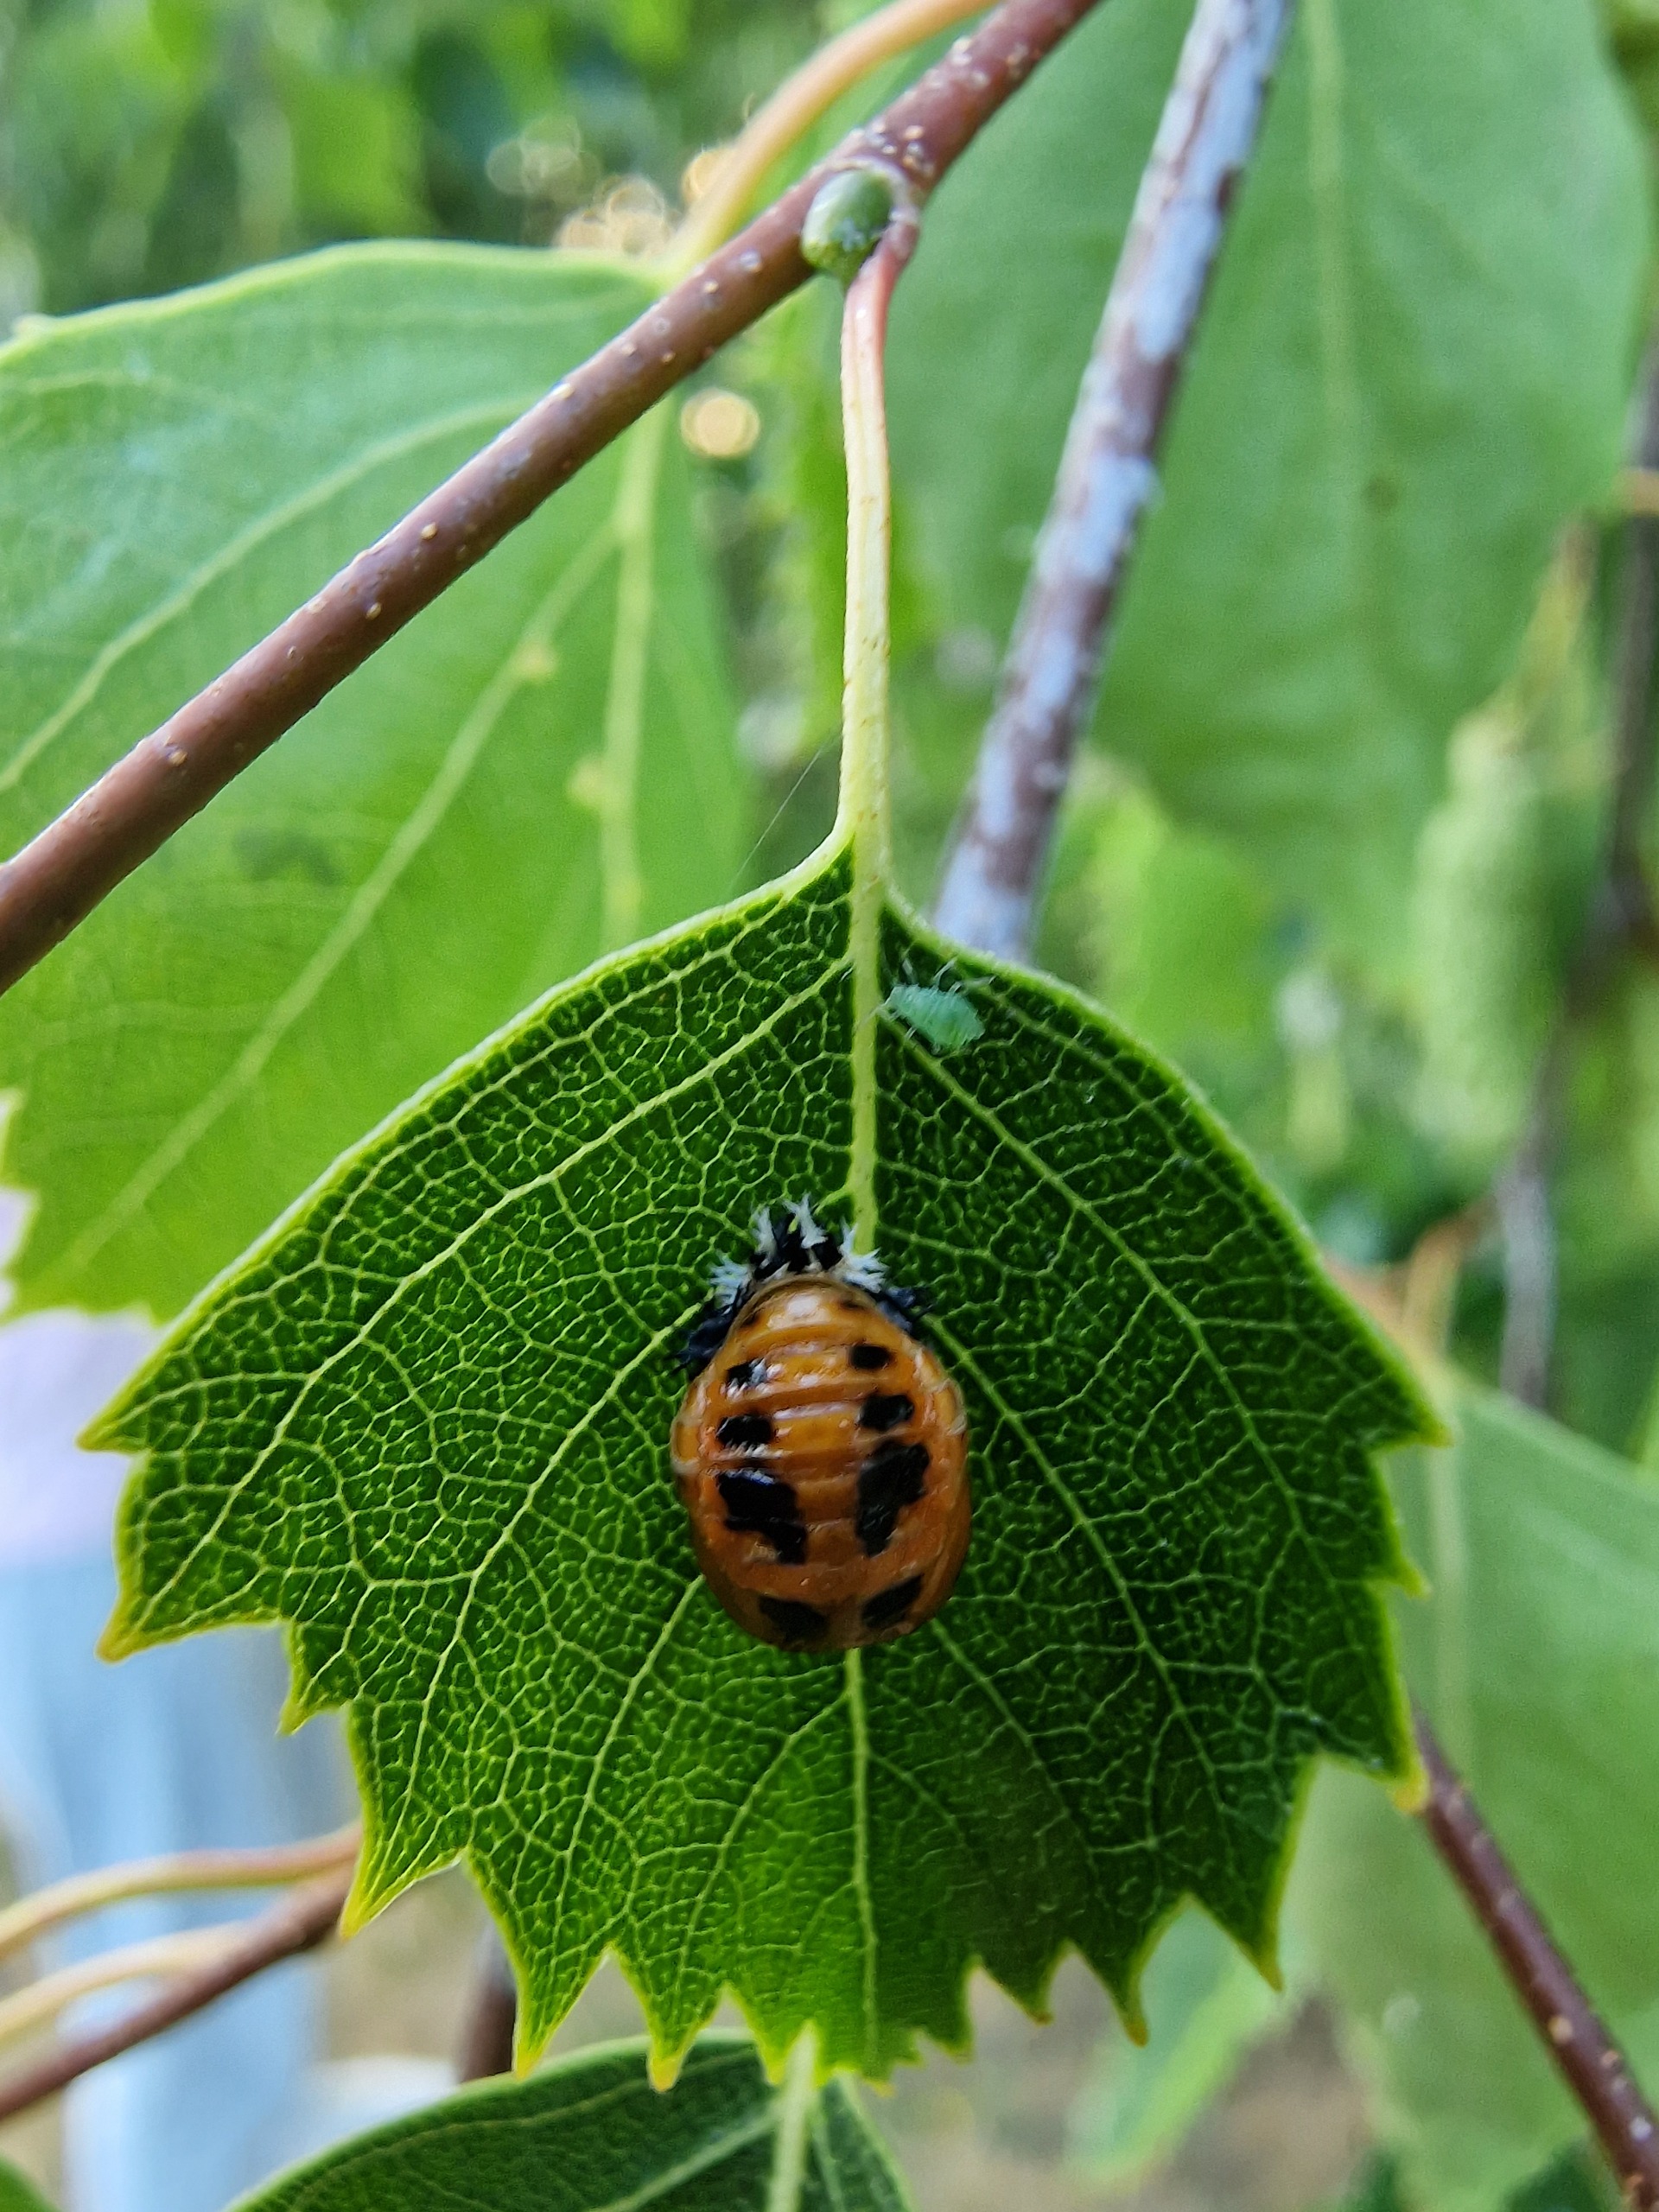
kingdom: Animalia
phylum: Arthropoda
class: Insecta
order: Coleoptera
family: Coccinellidae
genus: Harmonia
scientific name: Harmonia axyridis
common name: Harlekinmariehøne
